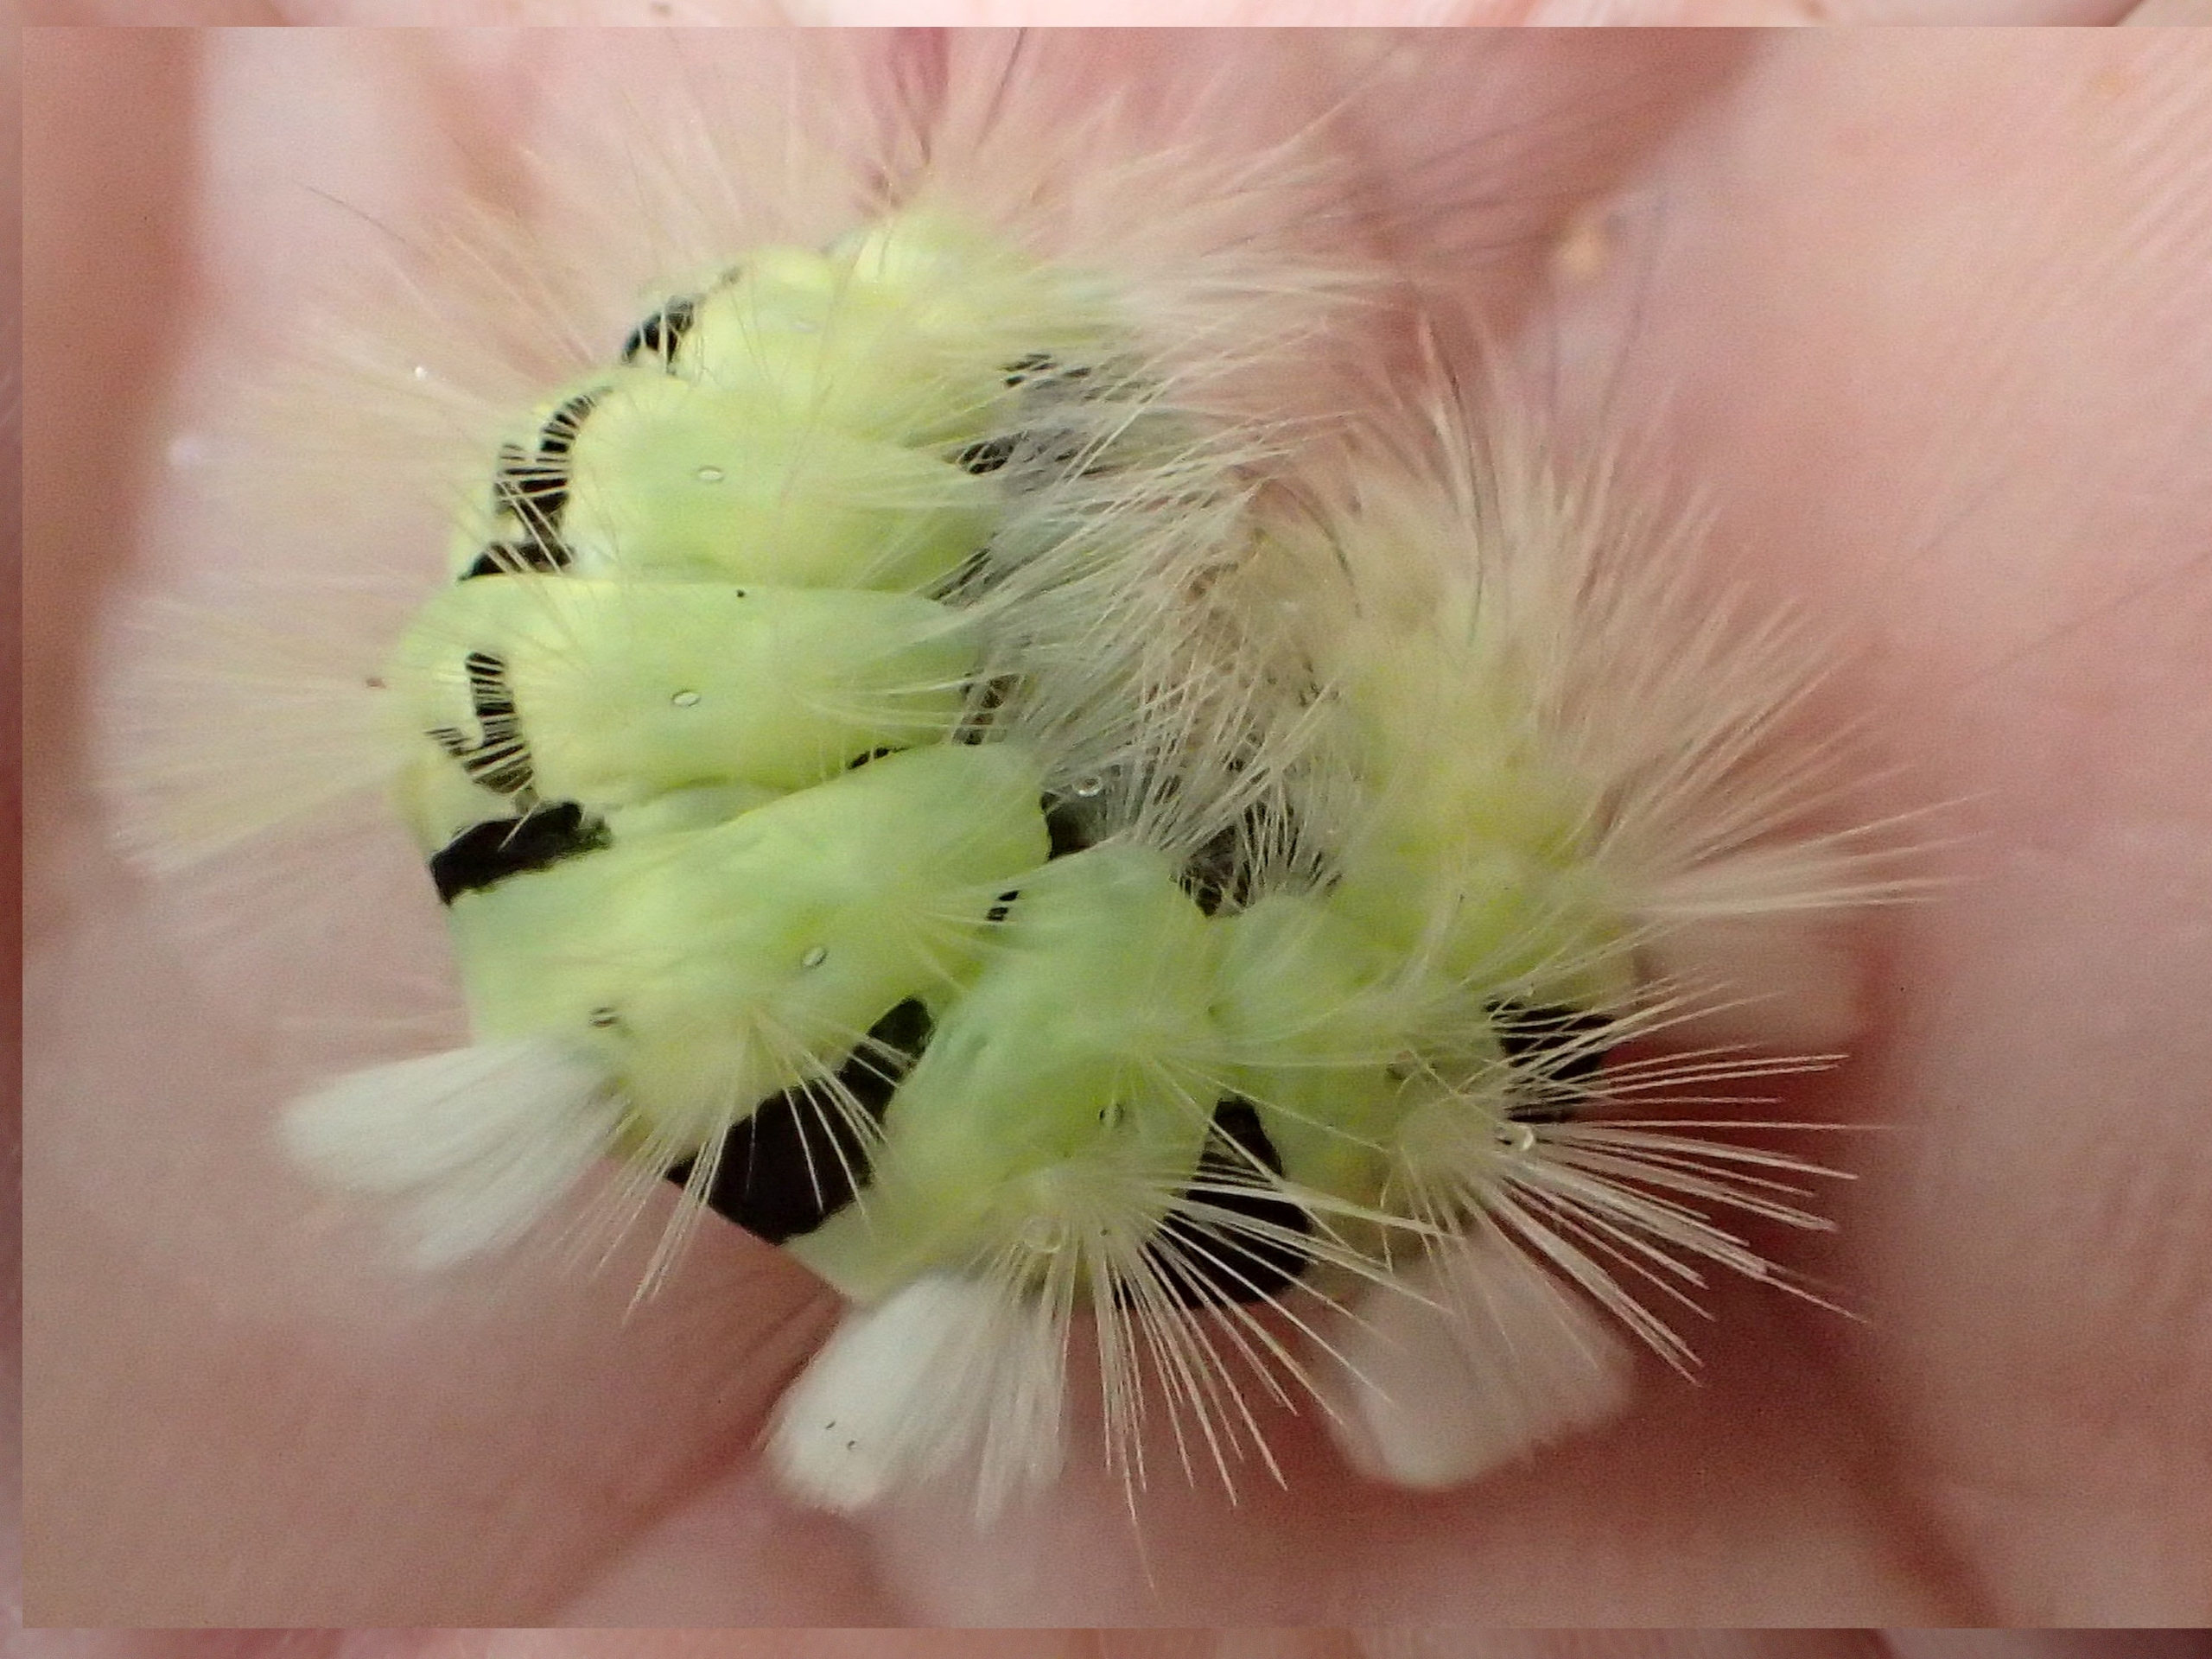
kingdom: Animalia
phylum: Arthropoda
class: Insecta
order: Lepidoptera
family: Erebidae
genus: Calliteara
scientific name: Calliteara pudibunda
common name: Bøgenonne
